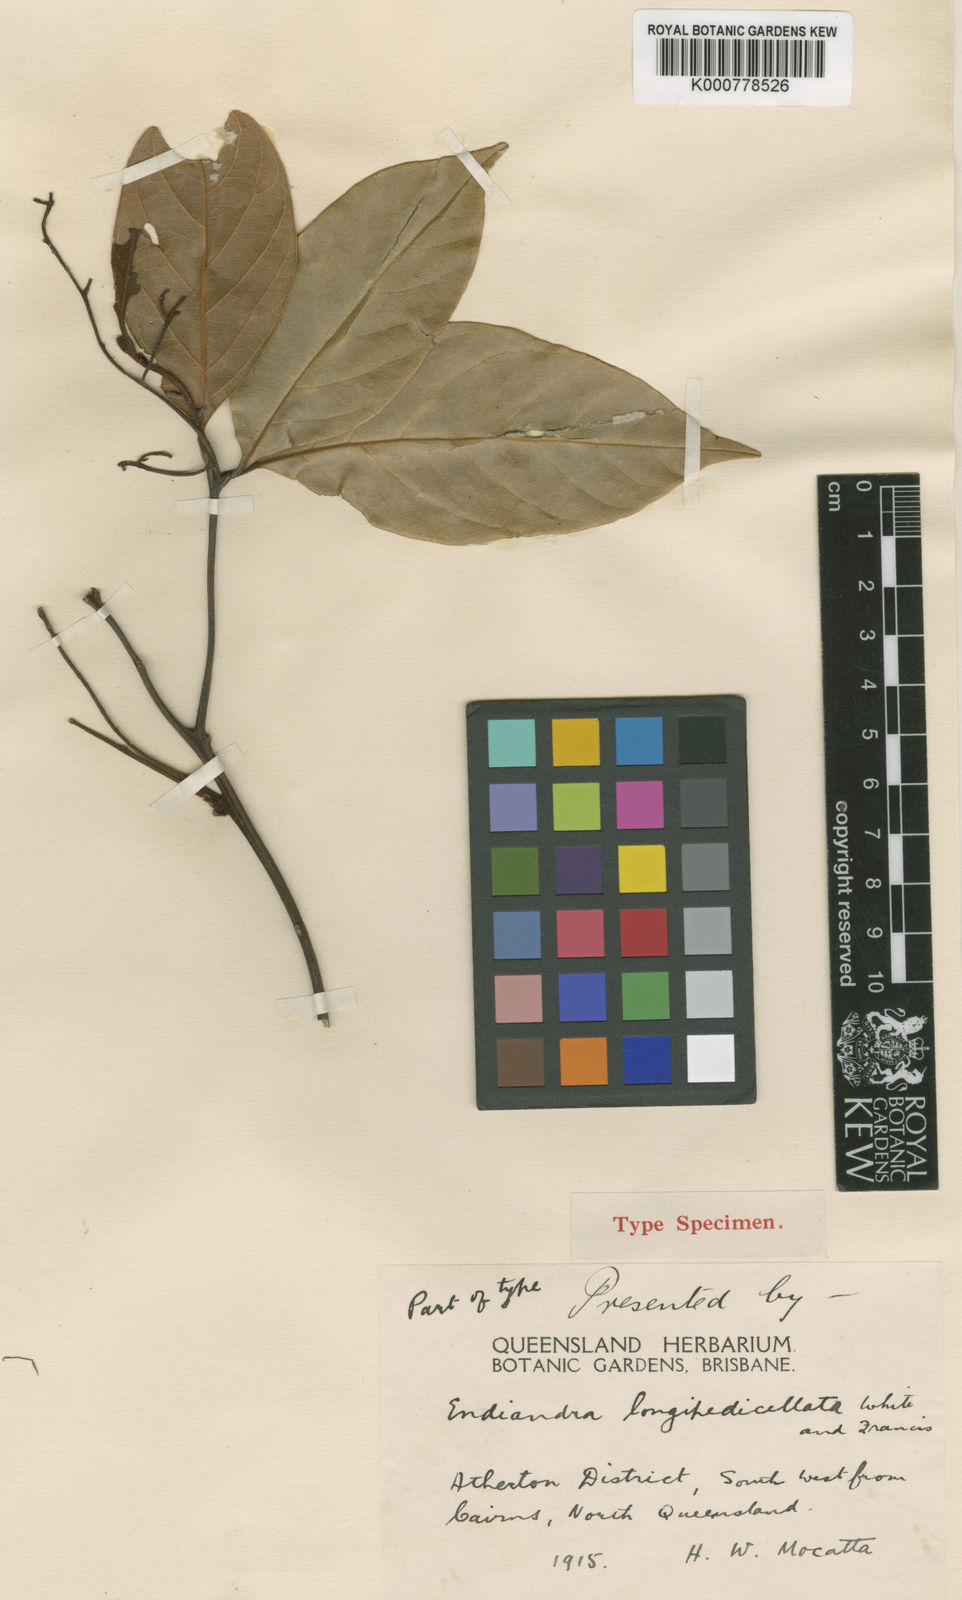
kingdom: Plantae
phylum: Tracheophyta
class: Magnoliopsida
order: Laurales
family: Lauraceae
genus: Endiandra
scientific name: Endiandra longipedicellata
